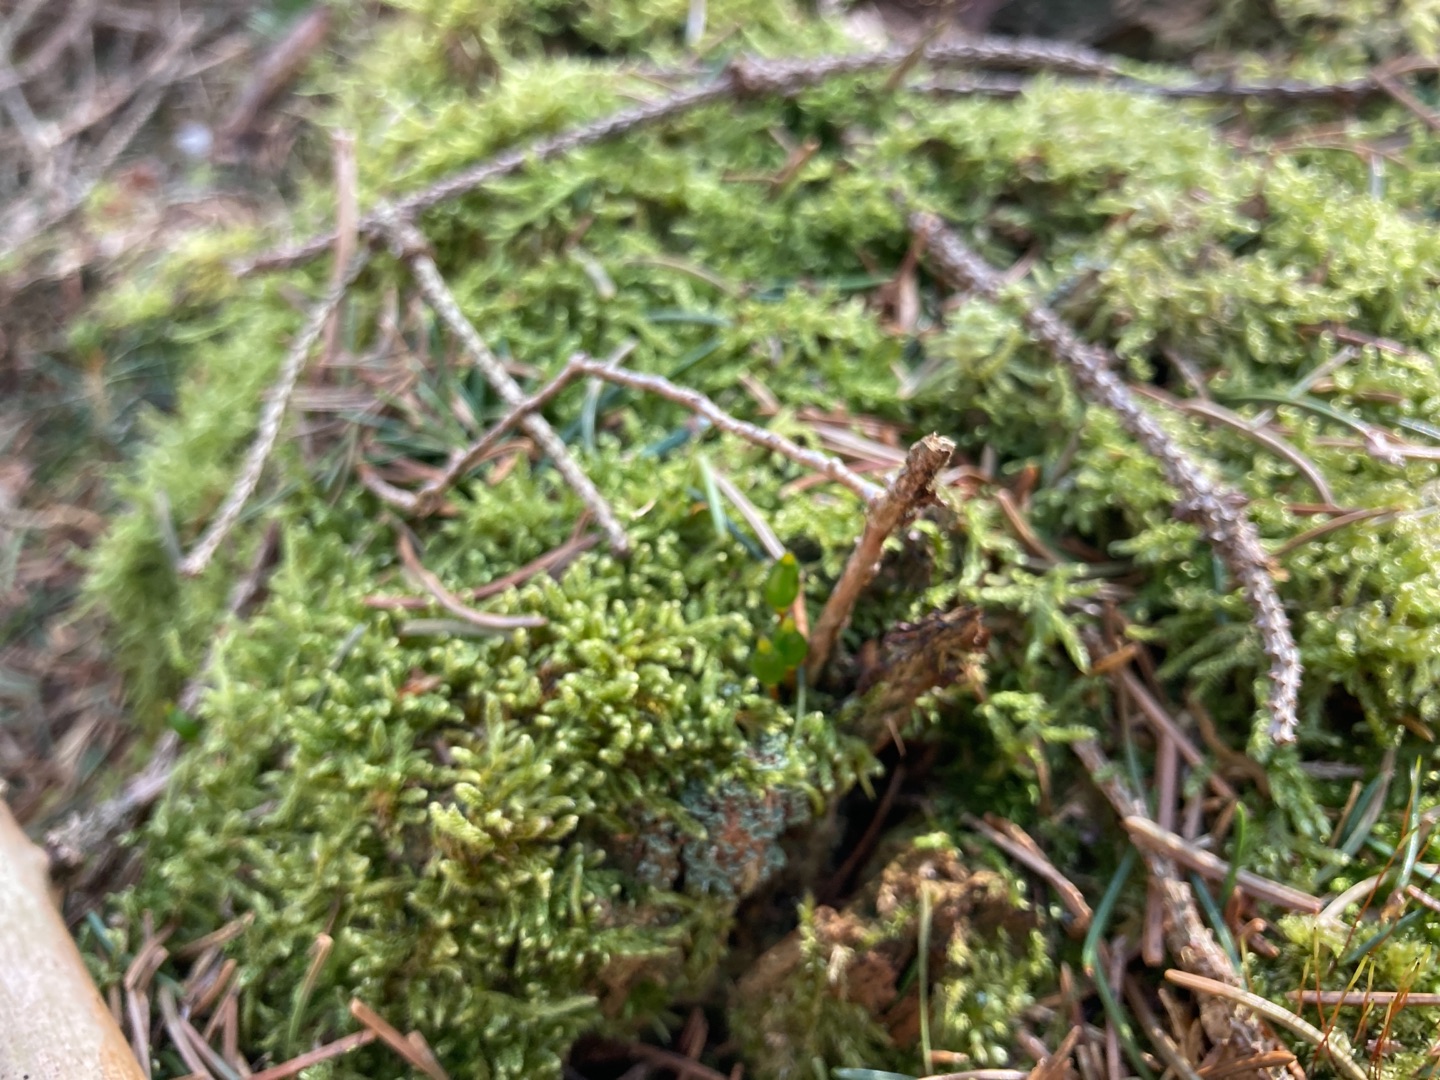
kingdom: Plantae
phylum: Bryophyta
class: Bryopsida
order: Buxbaumiales
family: Buxbaumiaceae
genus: Buxbaumia
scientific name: Buxbaumia viridis
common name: Grøn buxbaumia
